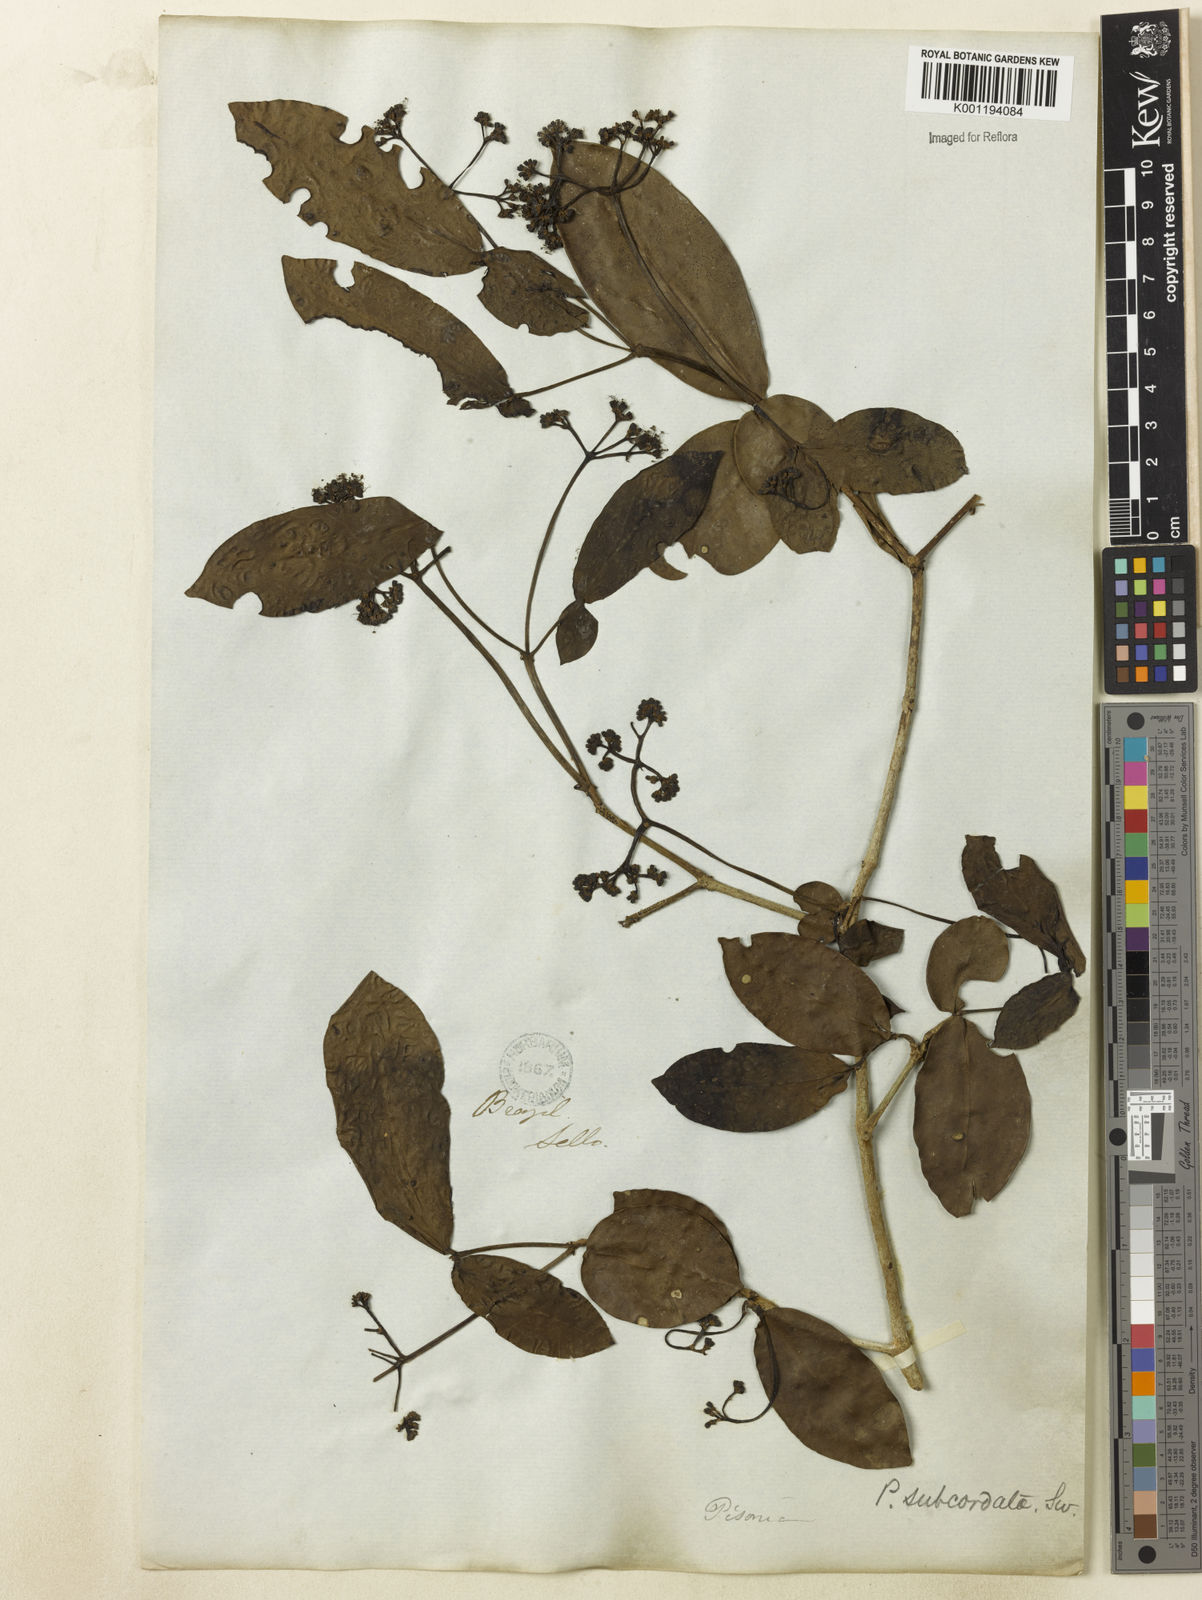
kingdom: Plantae
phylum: Tracheophyta
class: Magnoliopsida
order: Caryophyllales
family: Nyctaginaceae
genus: Guapira
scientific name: Guapira
